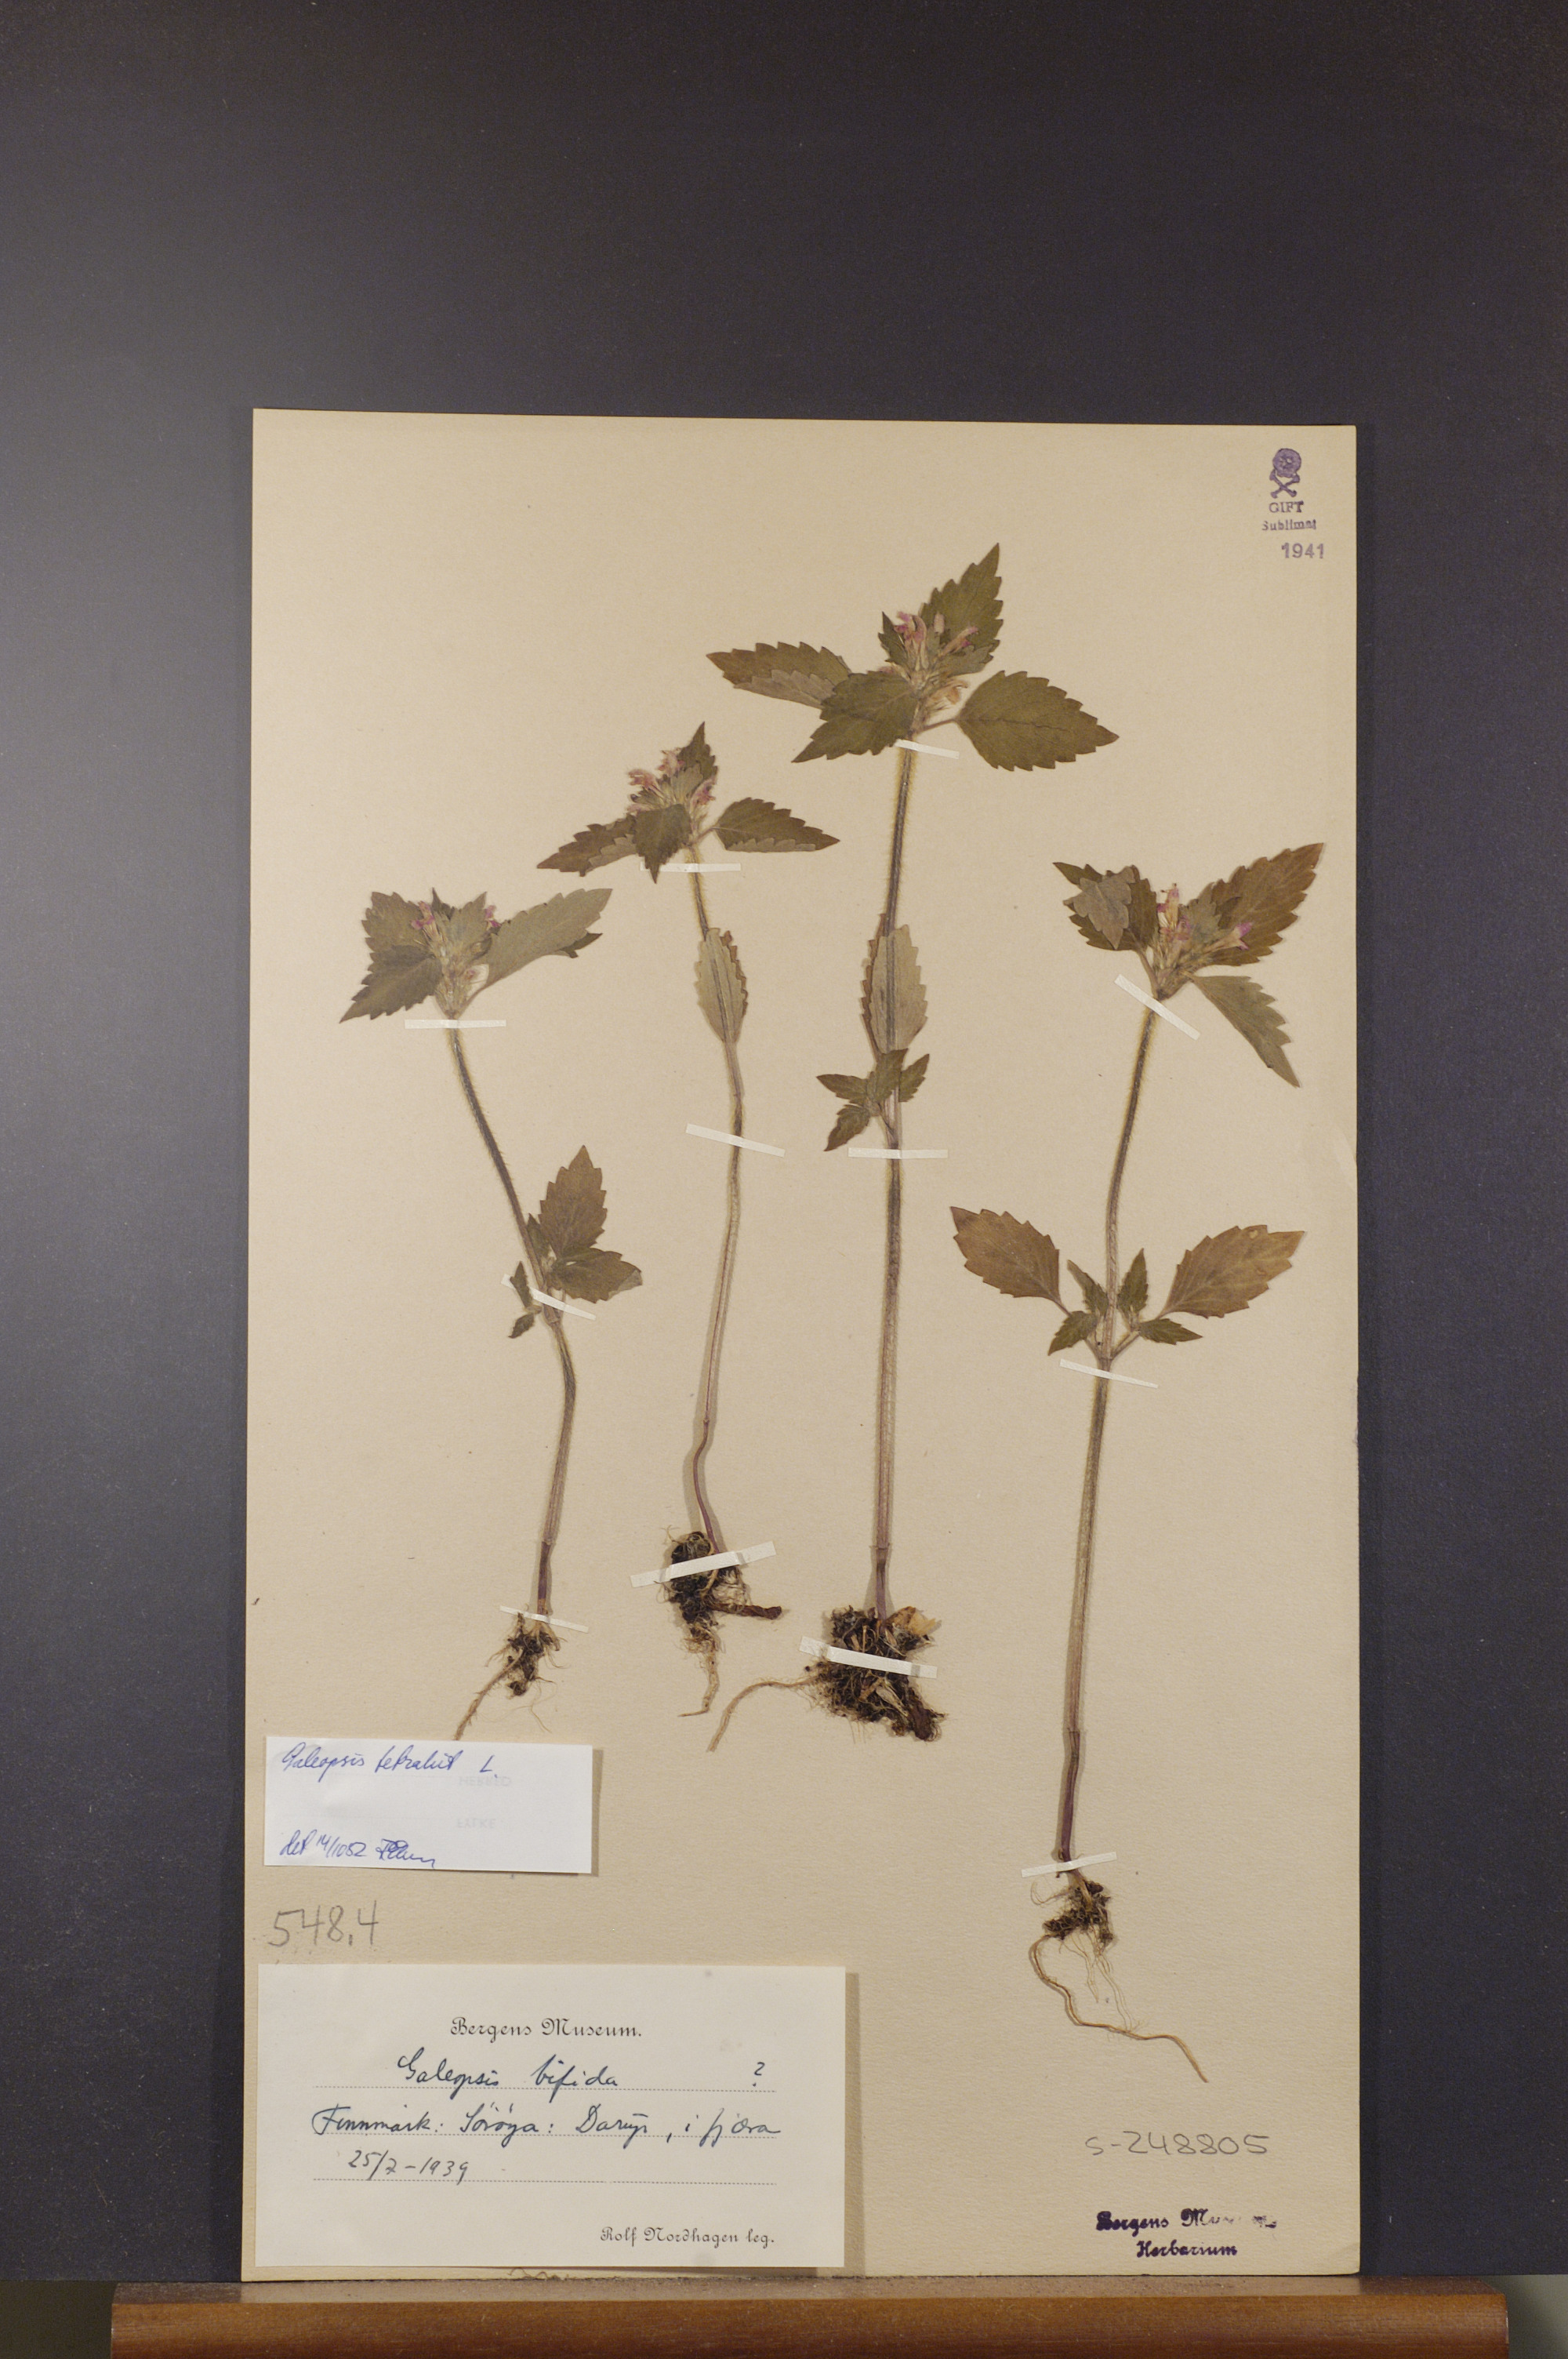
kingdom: Plantae
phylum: Tracheophyta
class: Magnoliopsida
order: Lamiales
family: Lamiaceae
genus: Galeopsis
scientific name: Galeopsis tetrahit
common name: Common hemp-nettle
